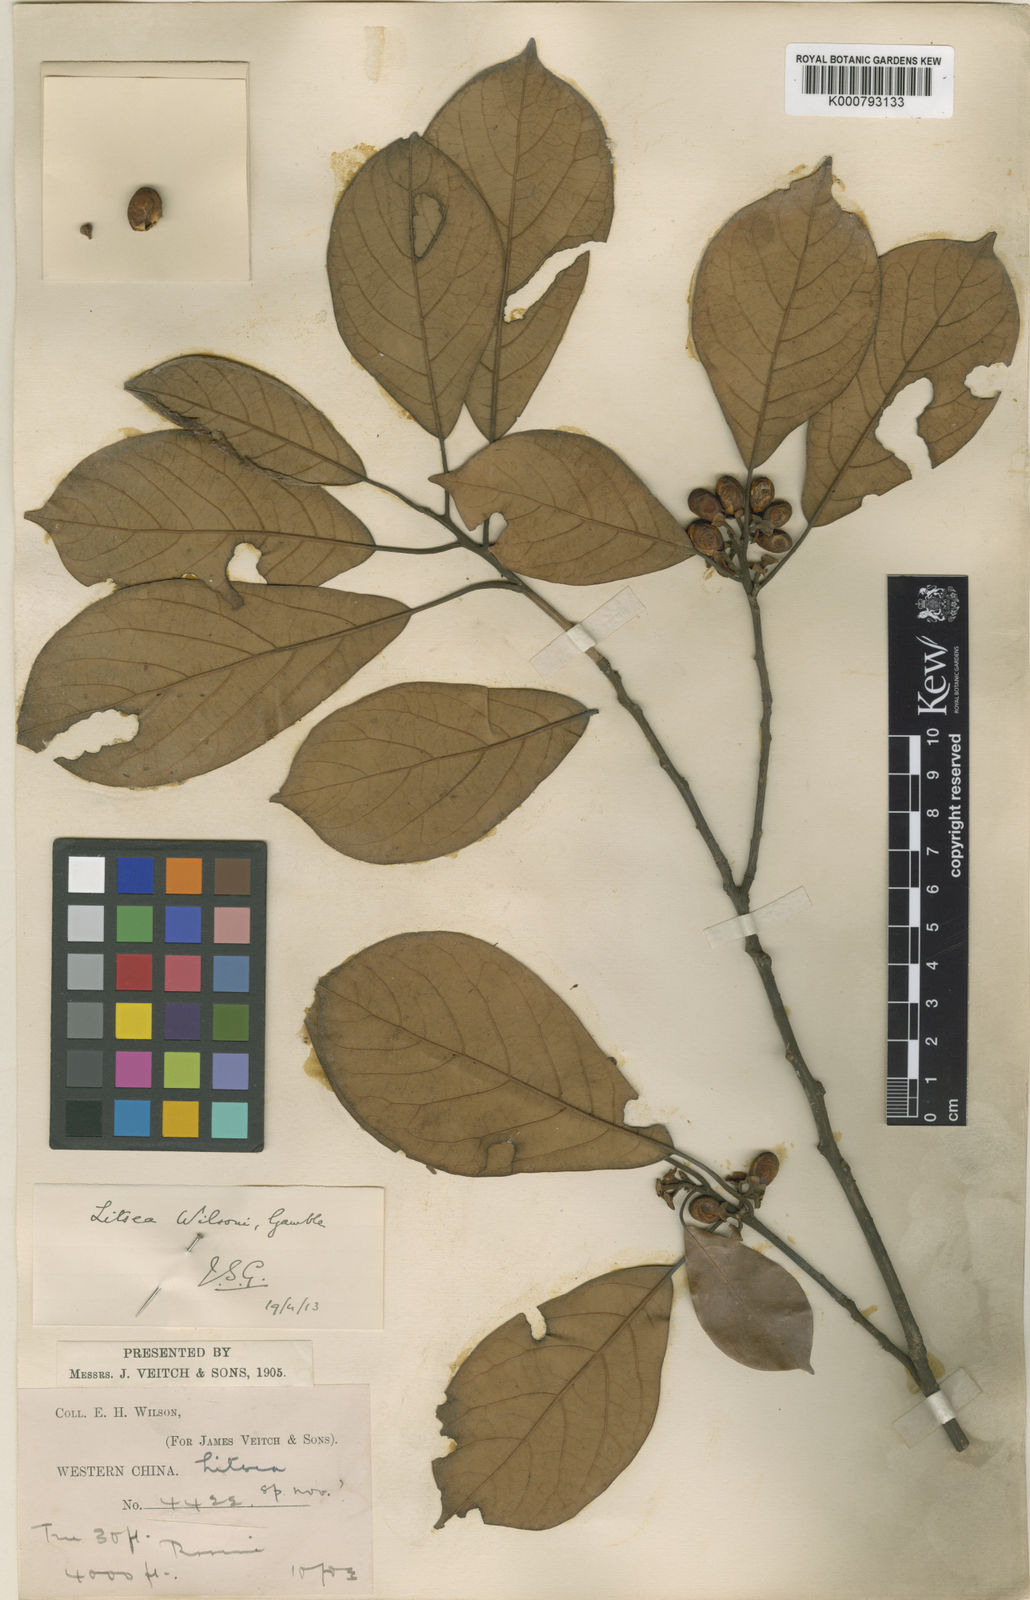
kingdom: Plantae
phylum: Tracheophyta
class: Magnoliopsida
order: Laurales
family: Lauraceae
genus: Litsea
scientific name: Litsea wilsonii
